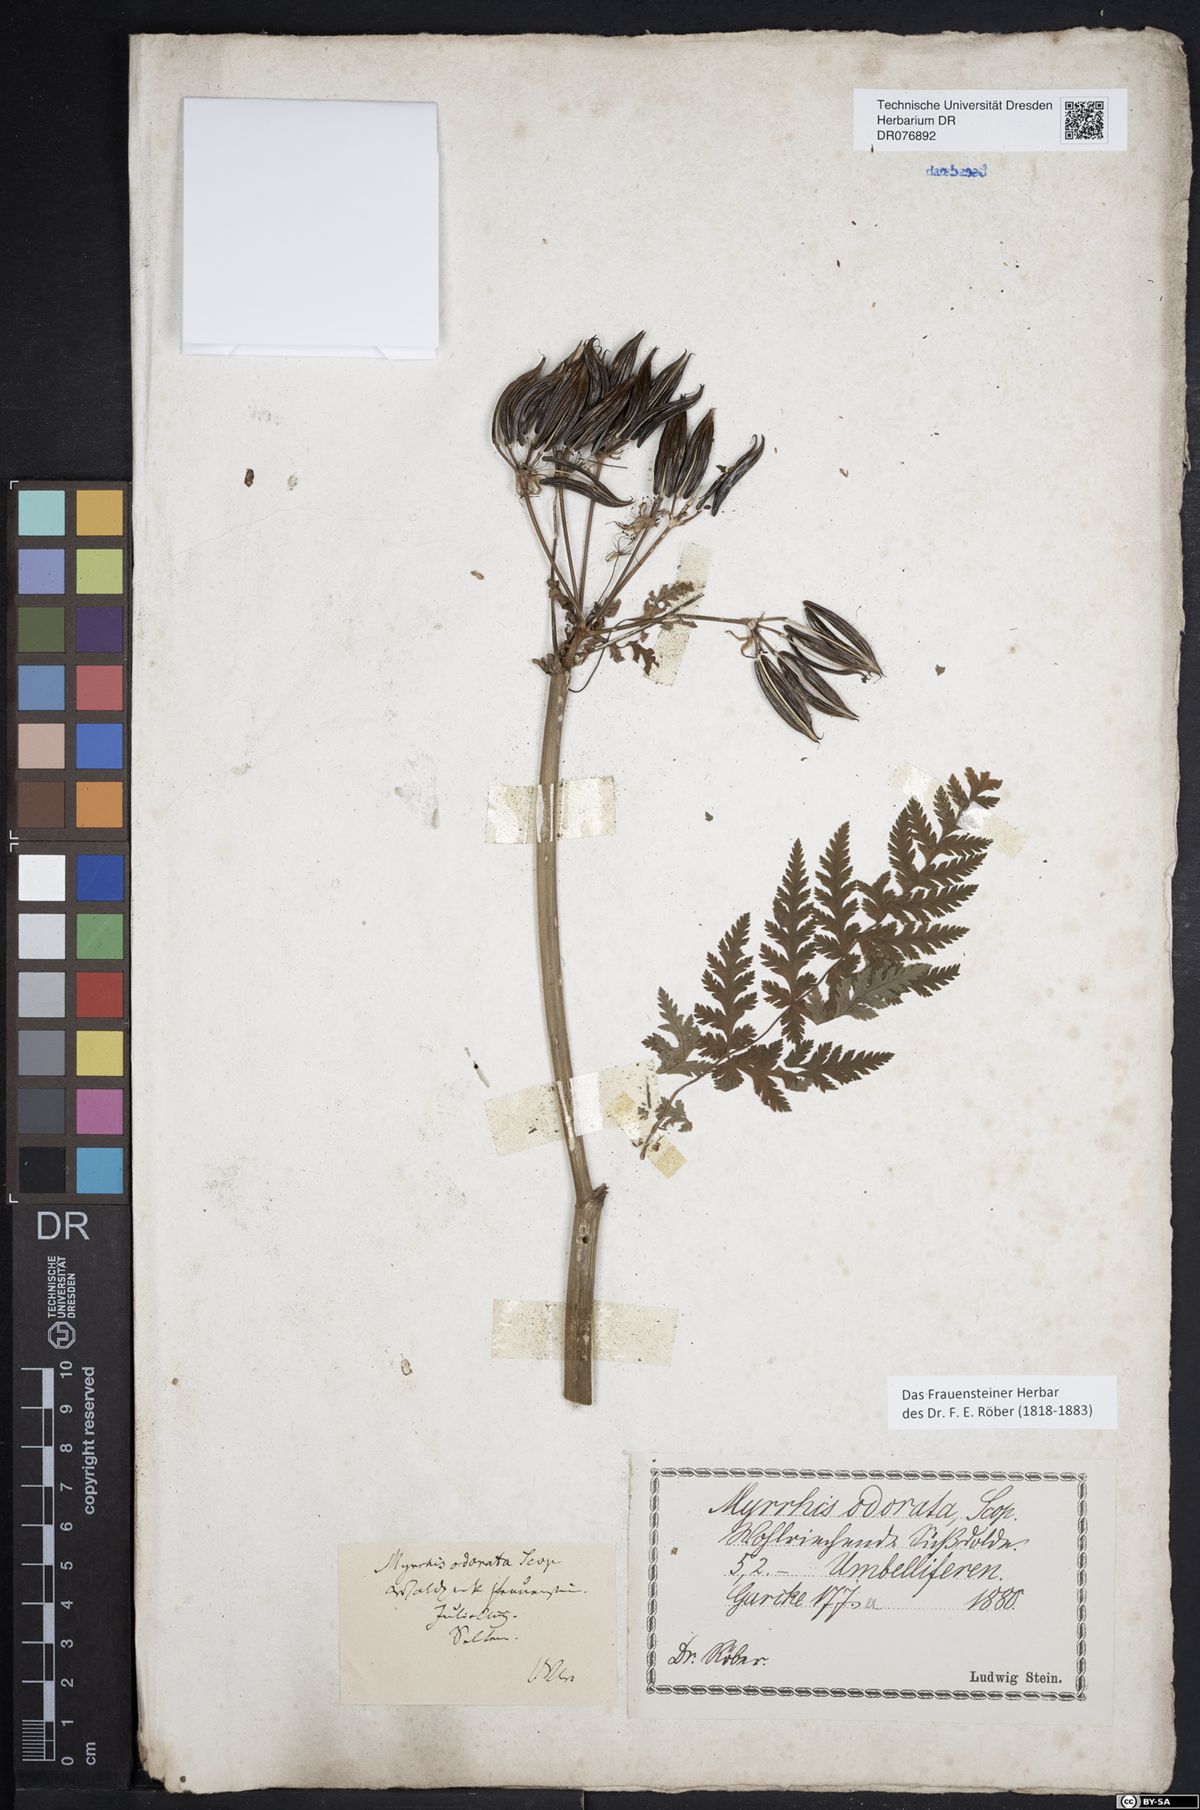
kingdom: Plantae
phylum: Tracheophyta
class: Magnoliopsida
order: Apiales
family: Apiaceae
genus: Myrrhis
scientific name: Myrrhis odorata
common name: Sweet cicely
